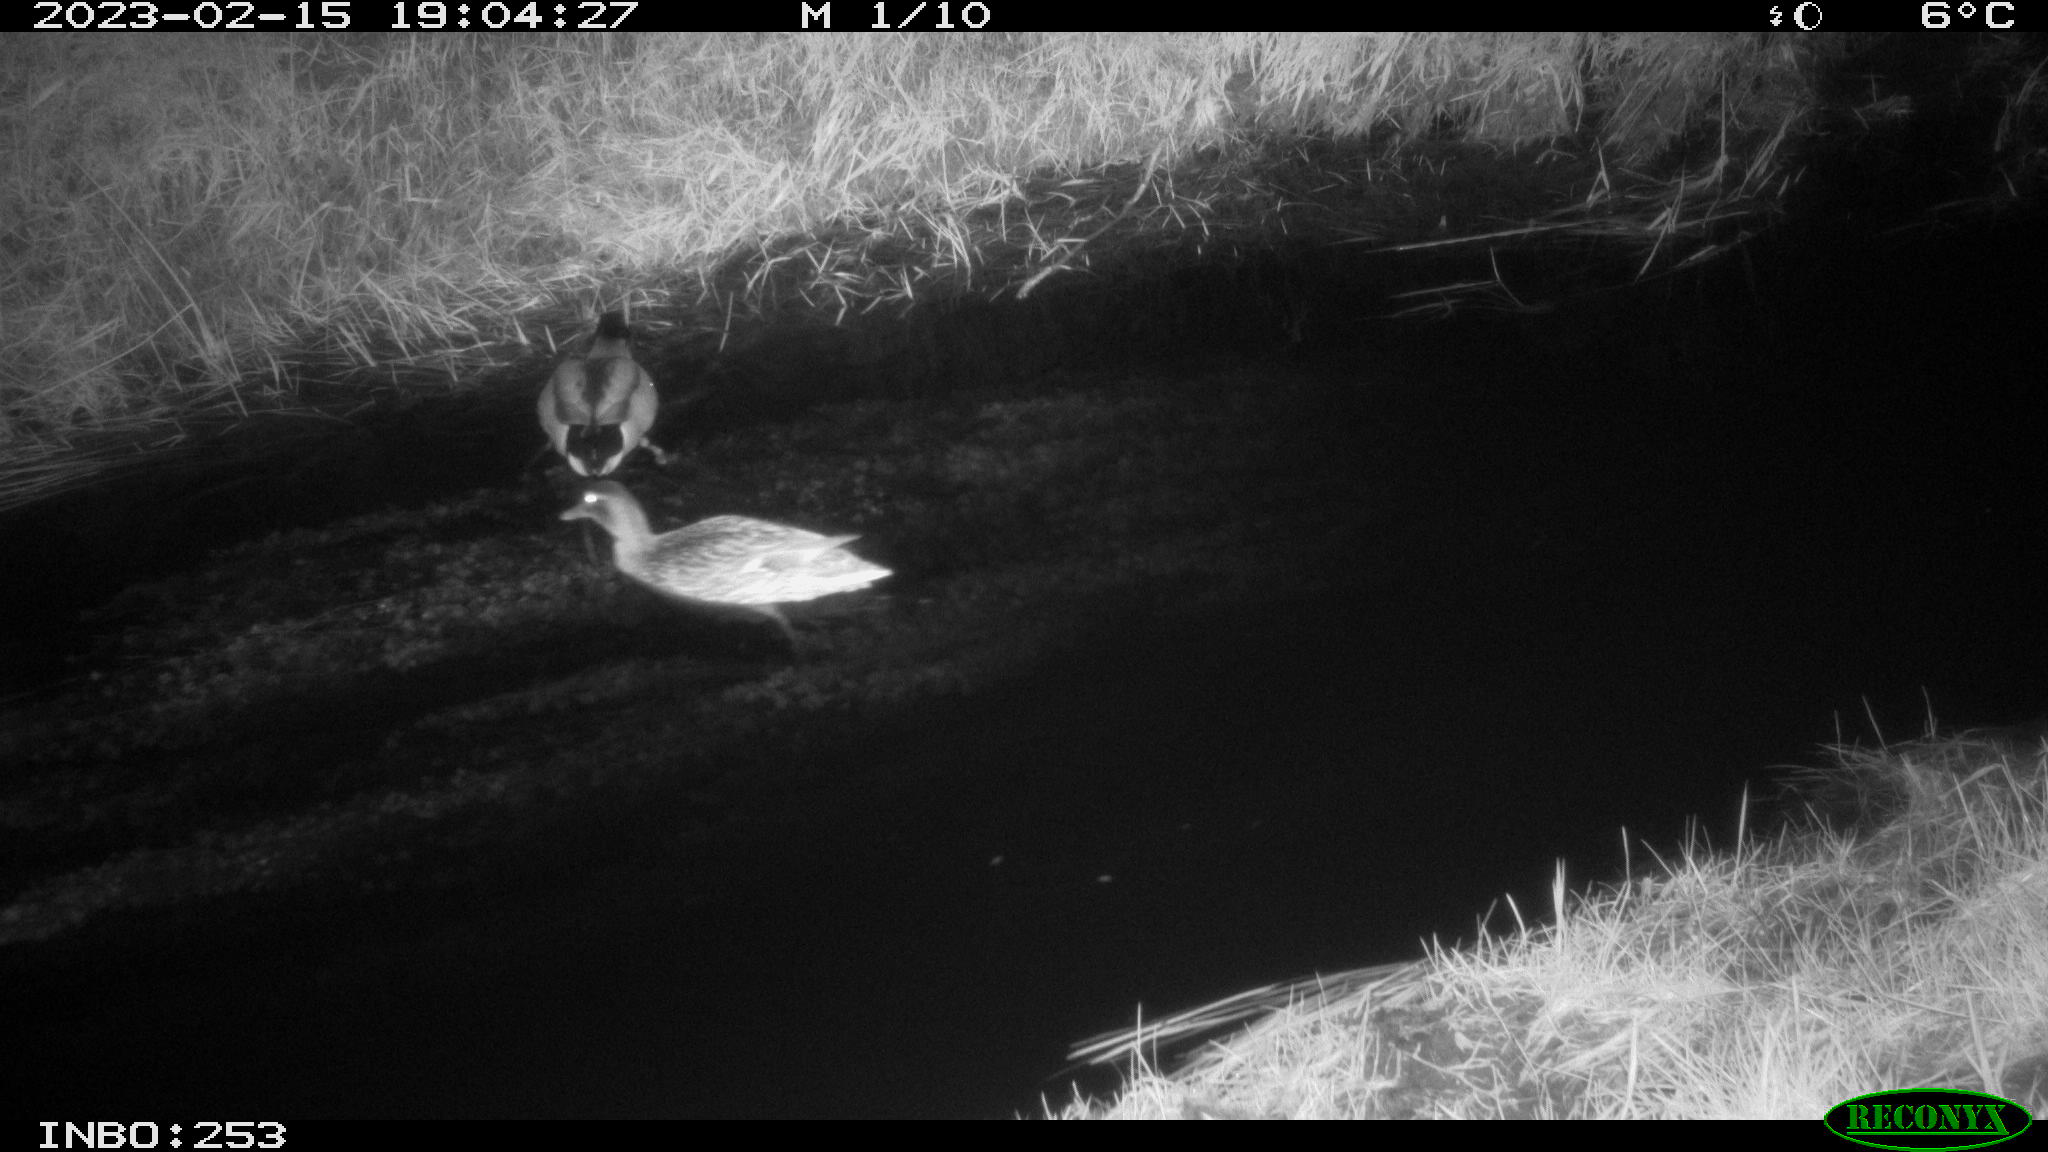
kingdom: Animalia
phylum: Chordata
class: Aves
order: Anseriformes
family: Anatidae
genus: Anas
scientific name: Anas
